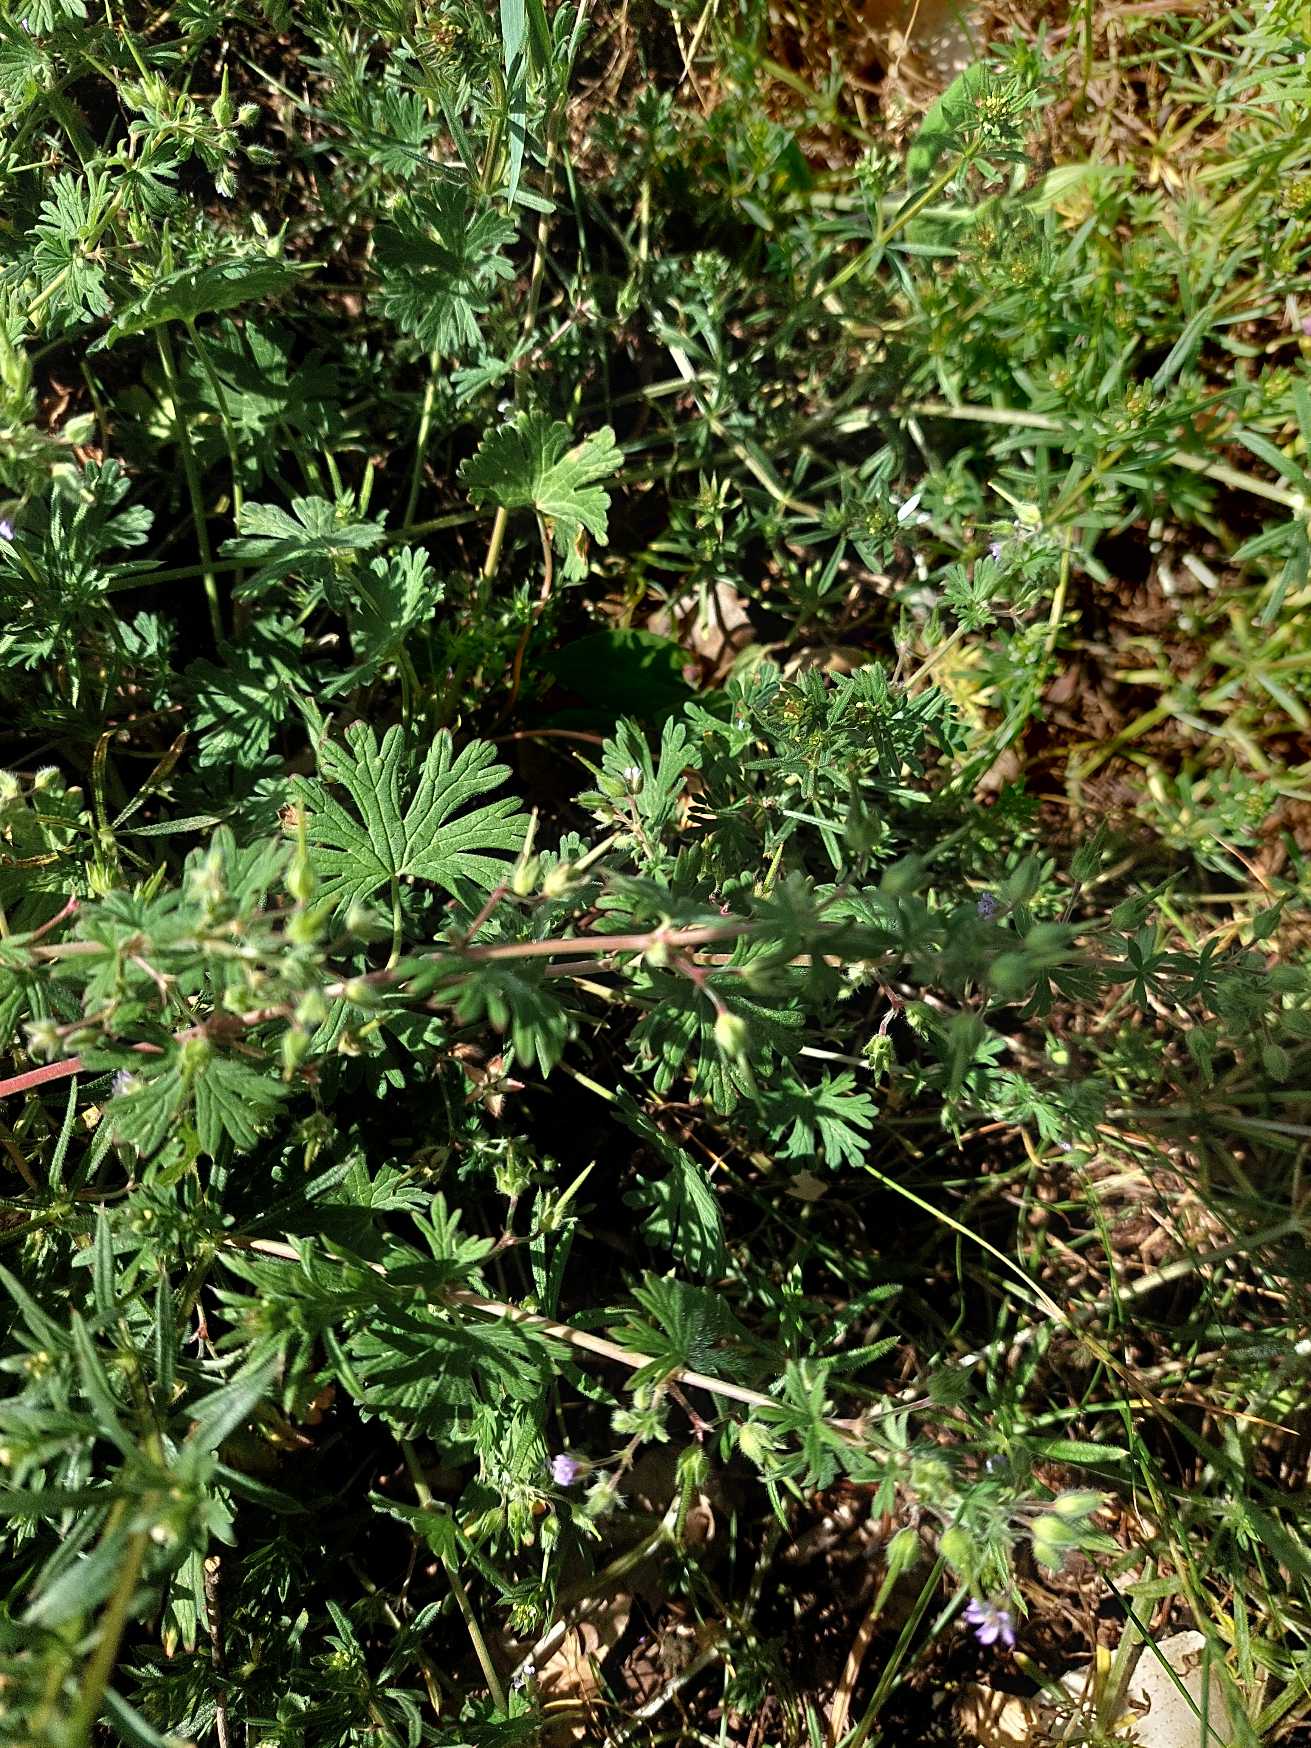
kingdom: Plantae
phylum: Tracheophyta
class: Magnoliopsida
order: Geraniales
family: Geraniaceae
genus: Geranium
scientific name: Geranium pusillum
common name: Liden storkenæb
